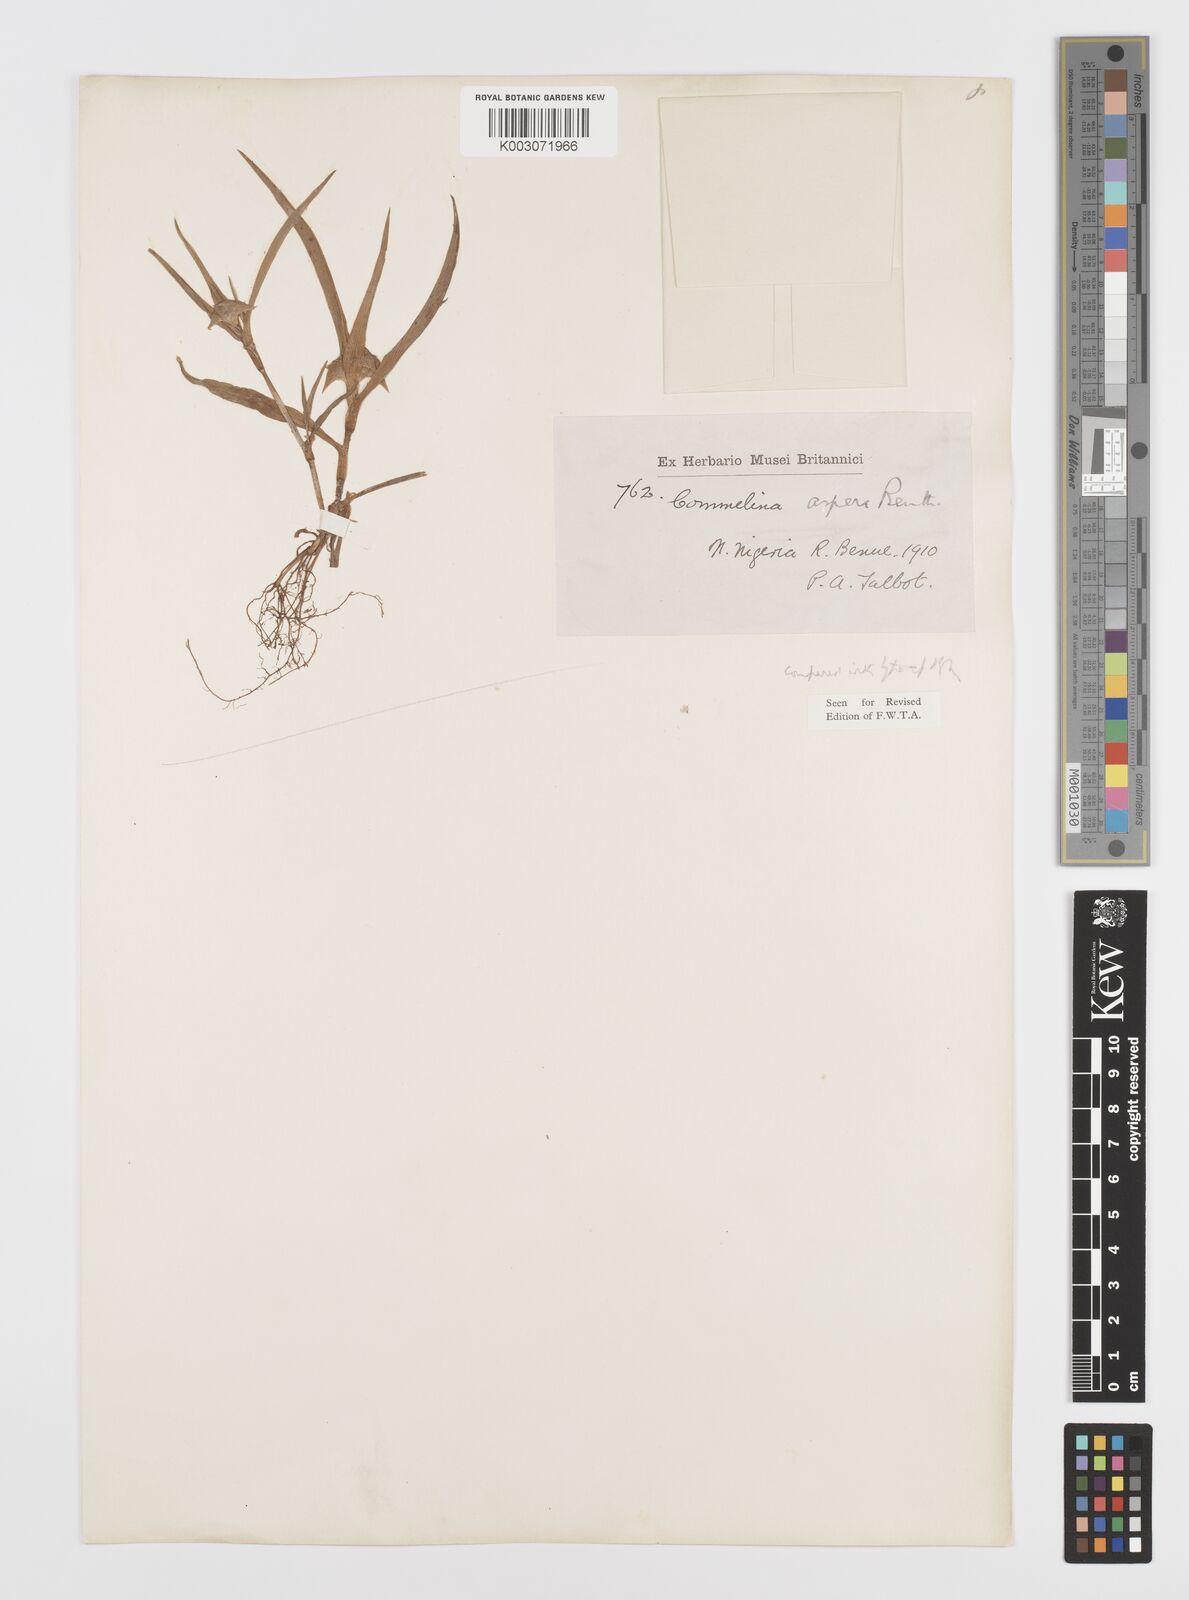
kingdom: Plantae
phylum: Tracheophyta
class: Liliopsida
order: Commelinales
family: Commelinaceae
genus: Commelina
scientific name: Commelina aspera
